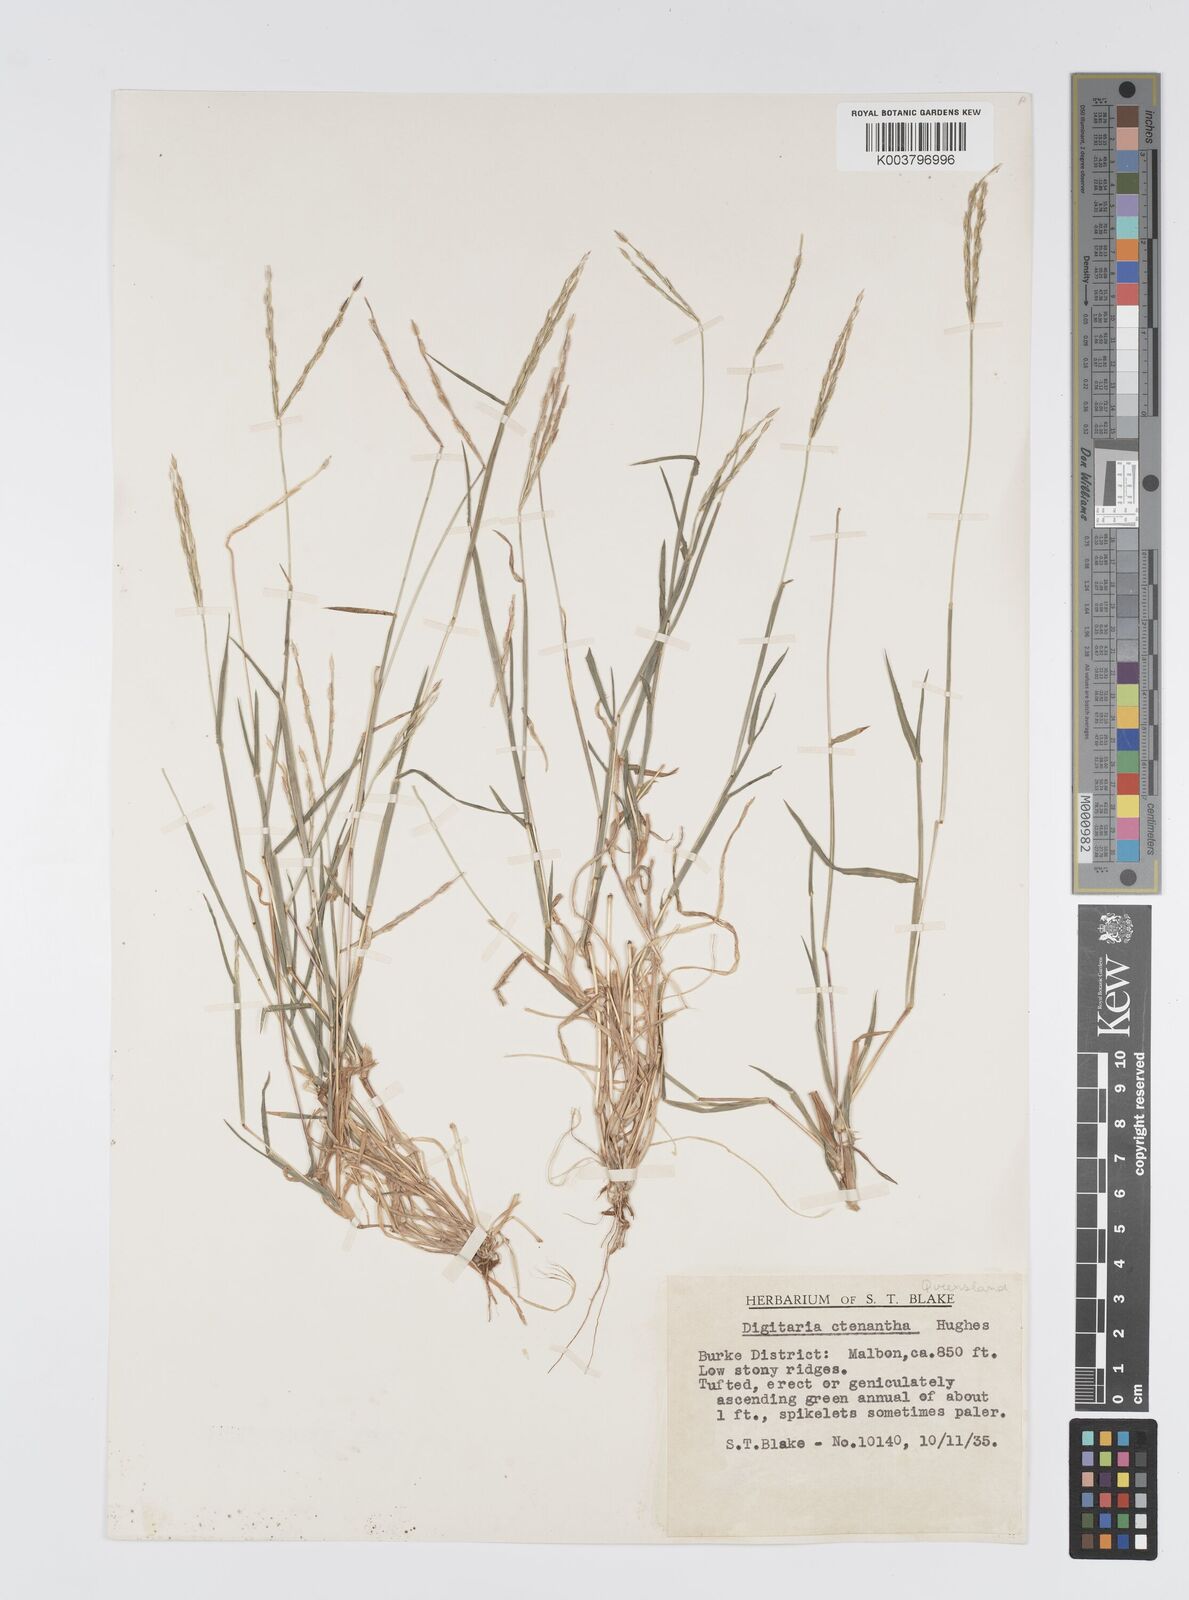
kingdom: Plantae
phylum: Tracheophyta
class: Liliopsida
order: Poales
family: Poaceae
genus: Digitaria
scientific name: Digitaria ctenantha
